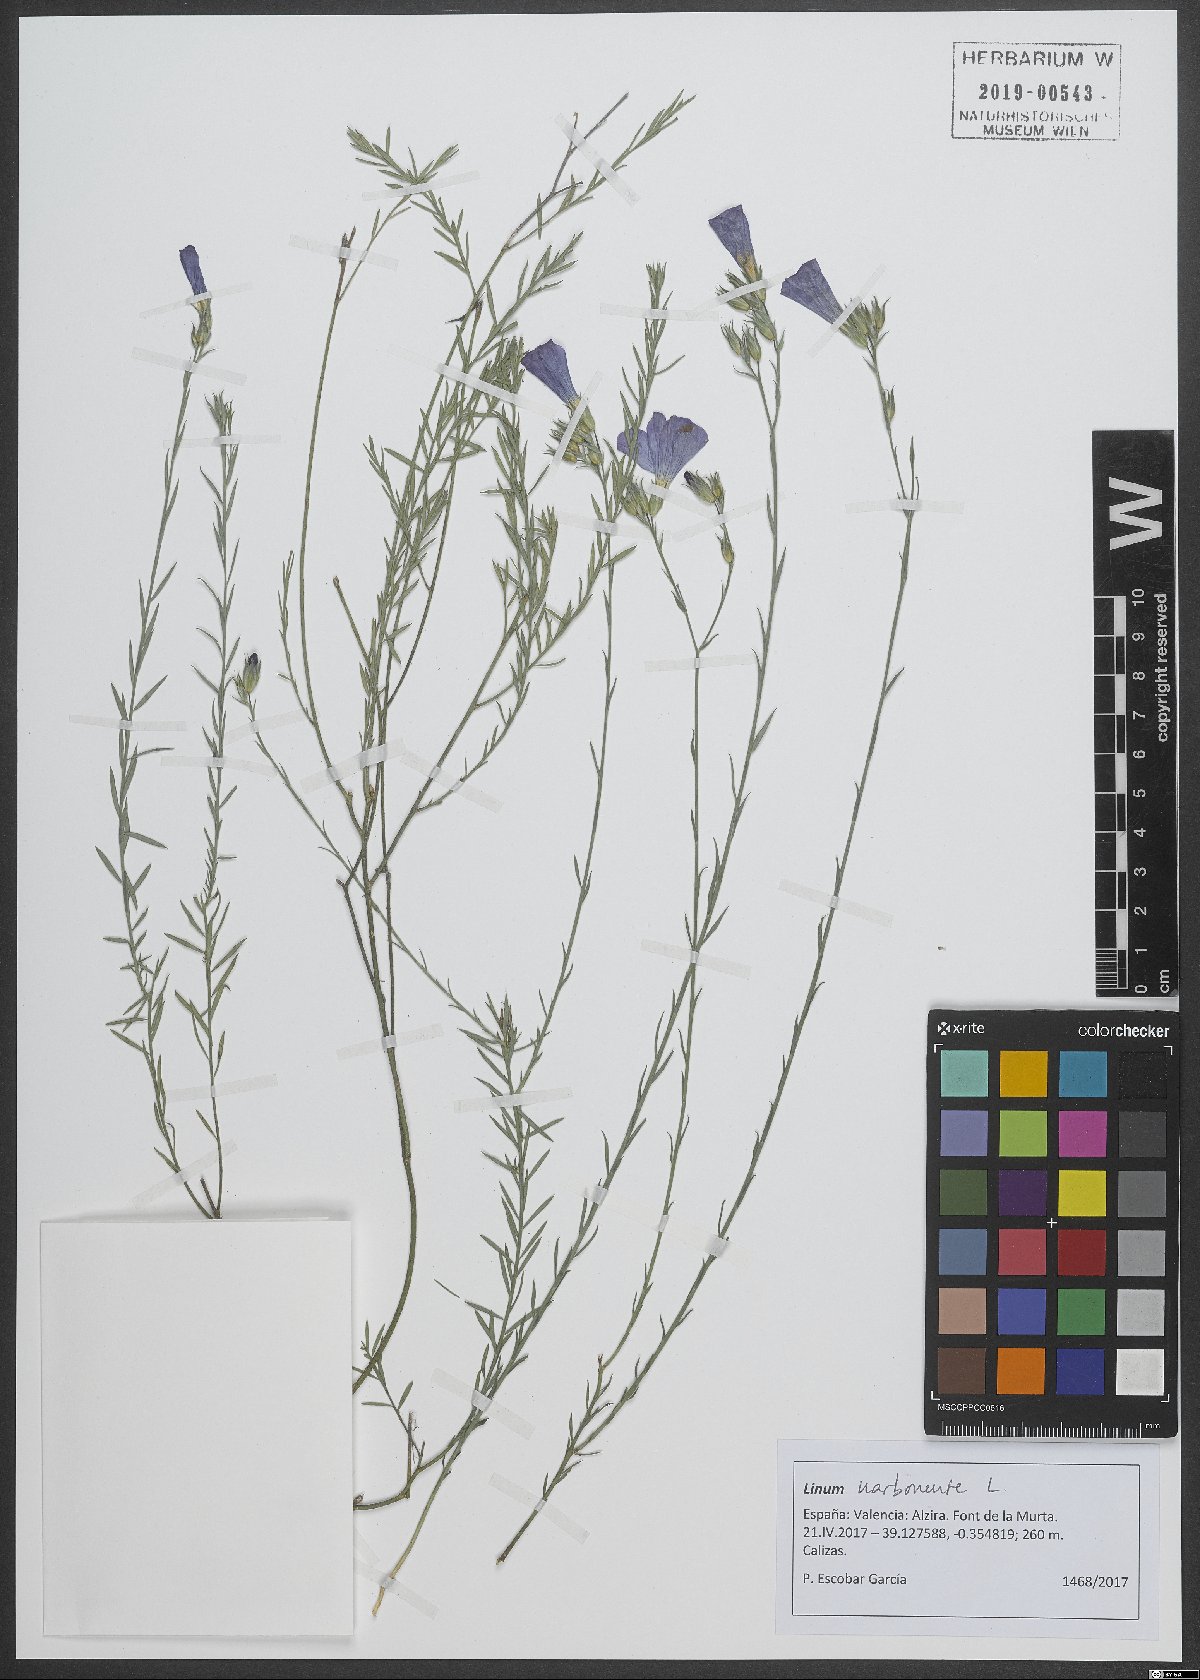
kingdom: Plantae
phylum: Tracheophyta
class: Magnoliopsida
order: Malpighiales
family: Linaceae
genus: Linum
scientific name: Linum narbonense
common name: Flax
